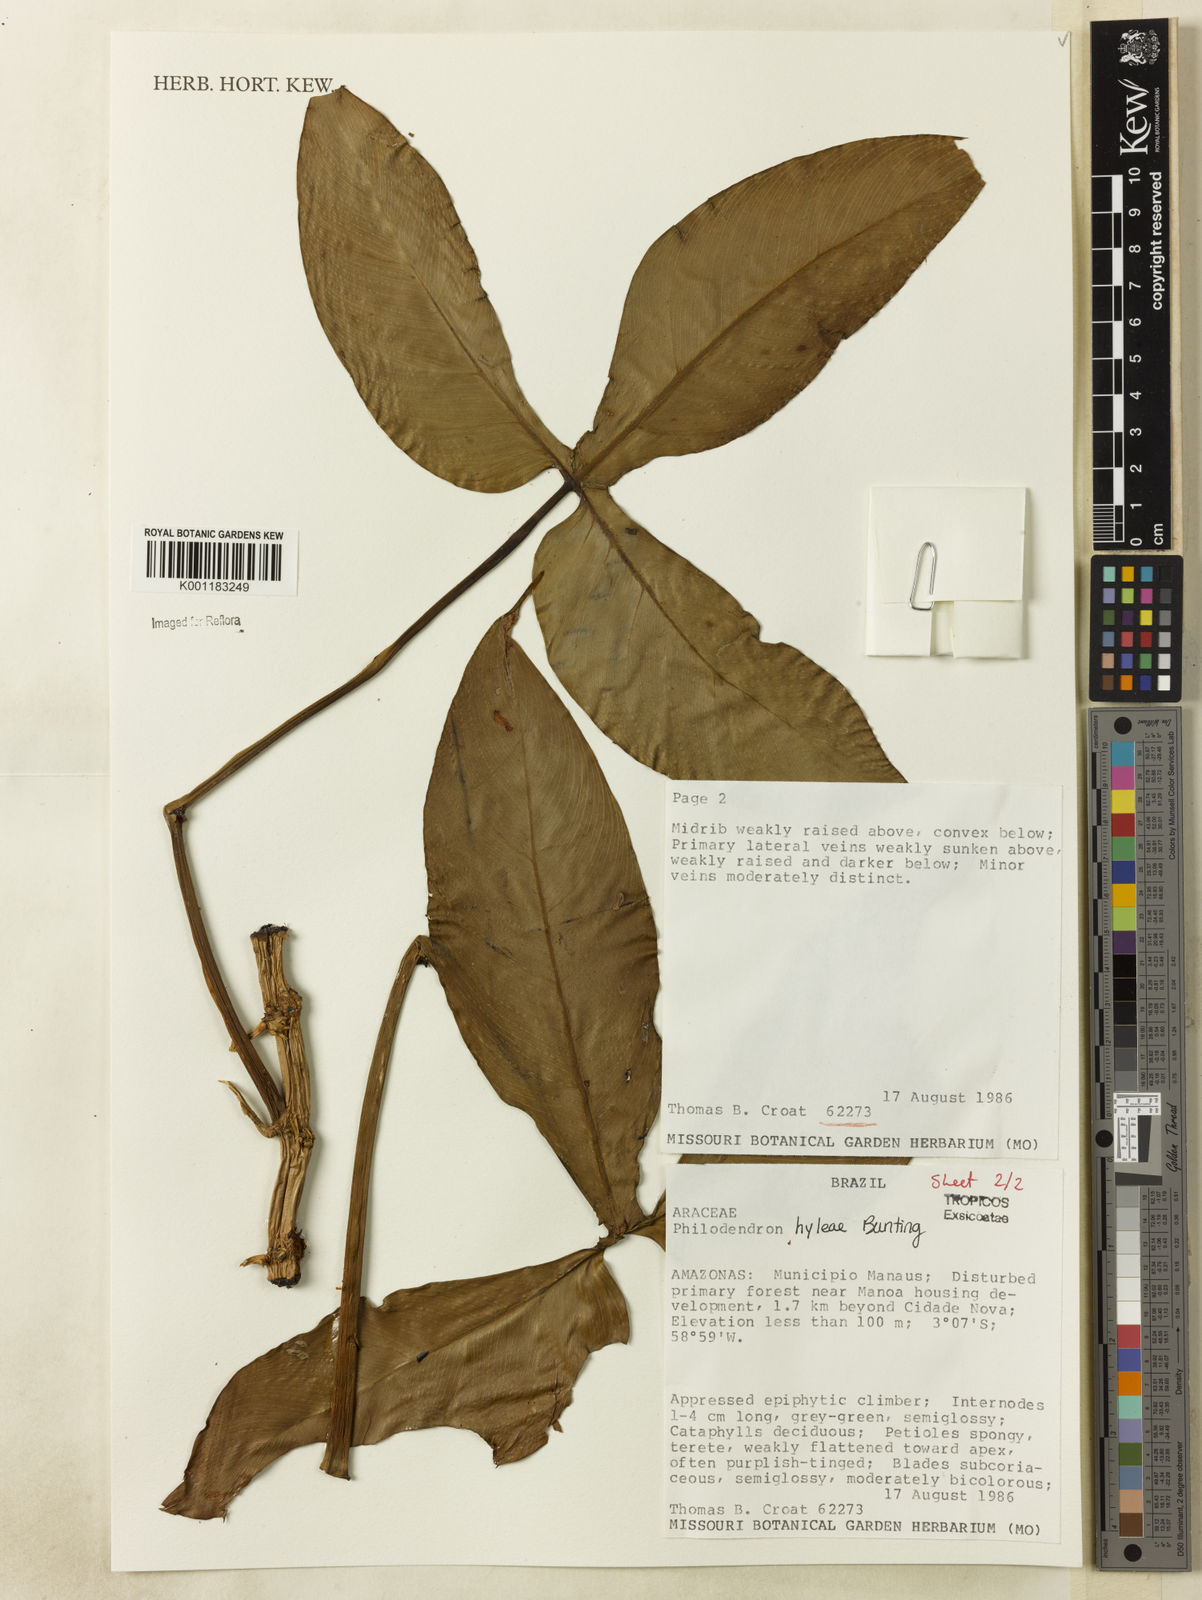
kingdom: Plantae
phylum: Tracheophyta
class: Liliopsida
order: Alismatales
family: Araceae
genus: Philodendron
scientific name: Philodendron hylaeae
